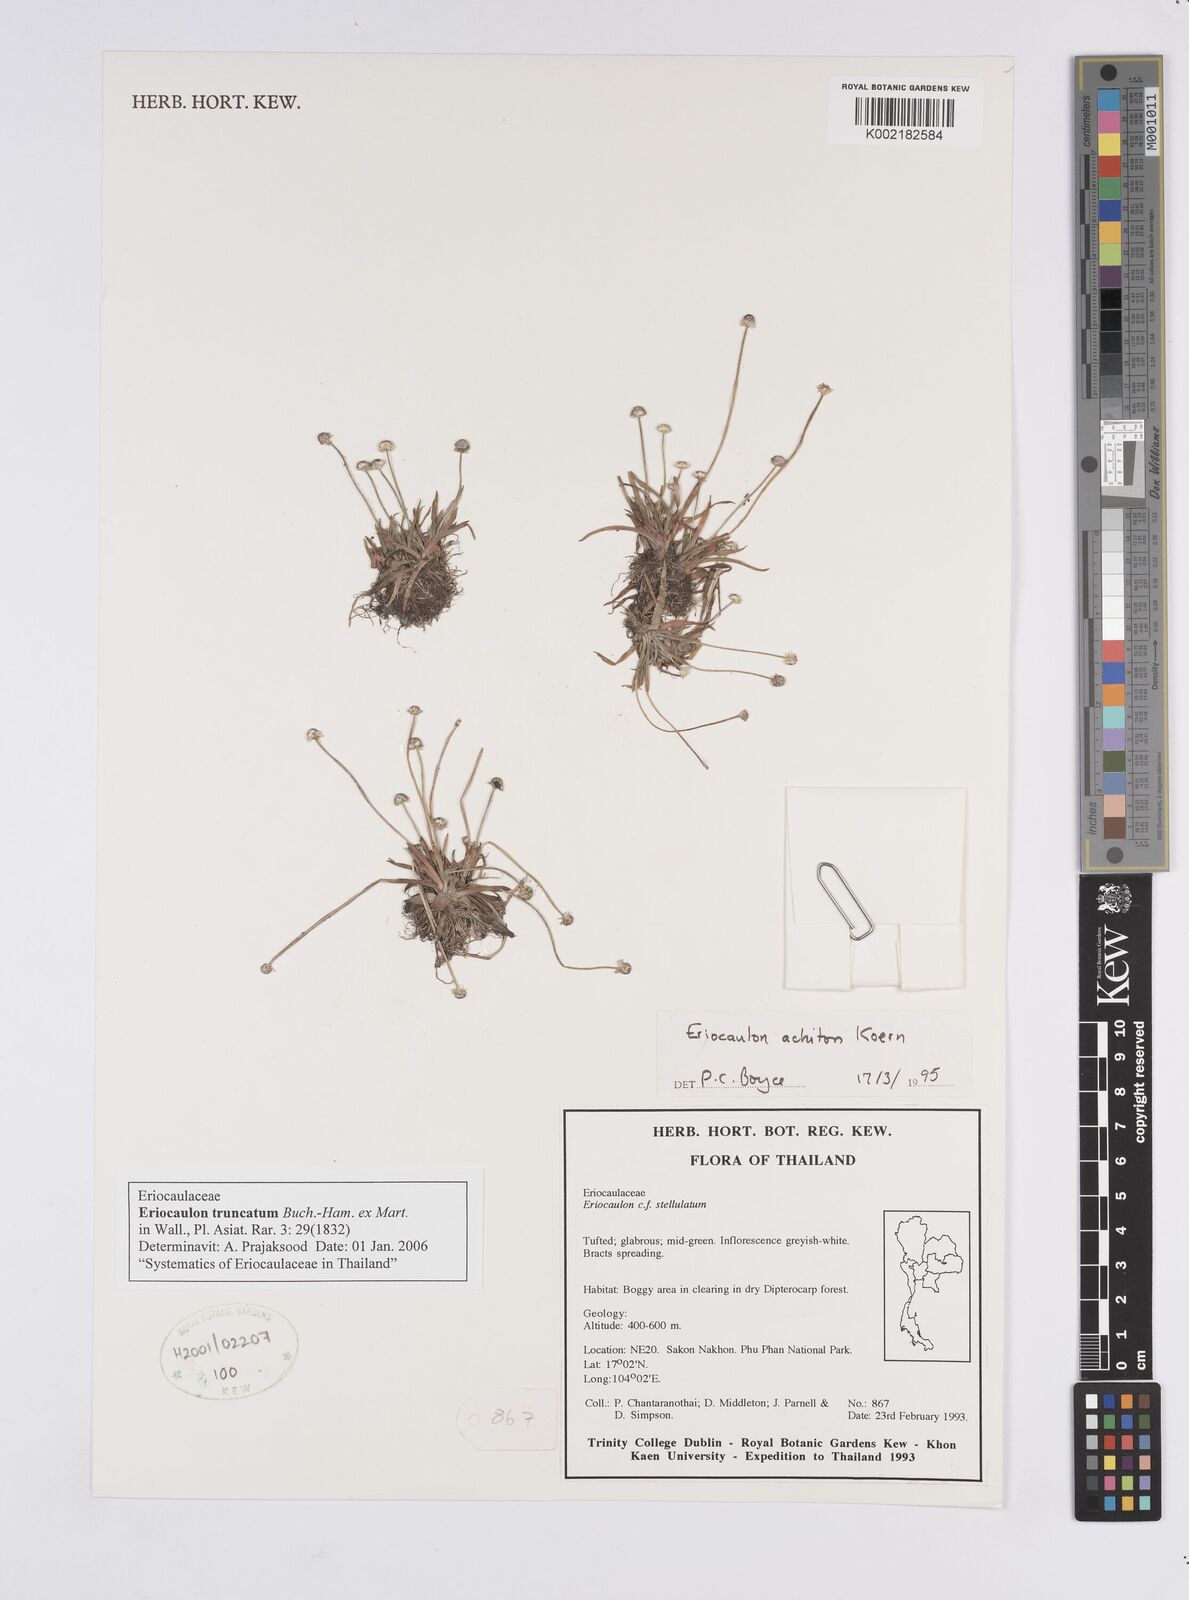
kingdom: Plantae
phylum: Tracheophyta
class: Liliopsida
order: Poales
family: Eriocaulaceae
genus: Eriocaulon
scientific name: Eriocaulon truncatum
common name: Short pipe-wort
